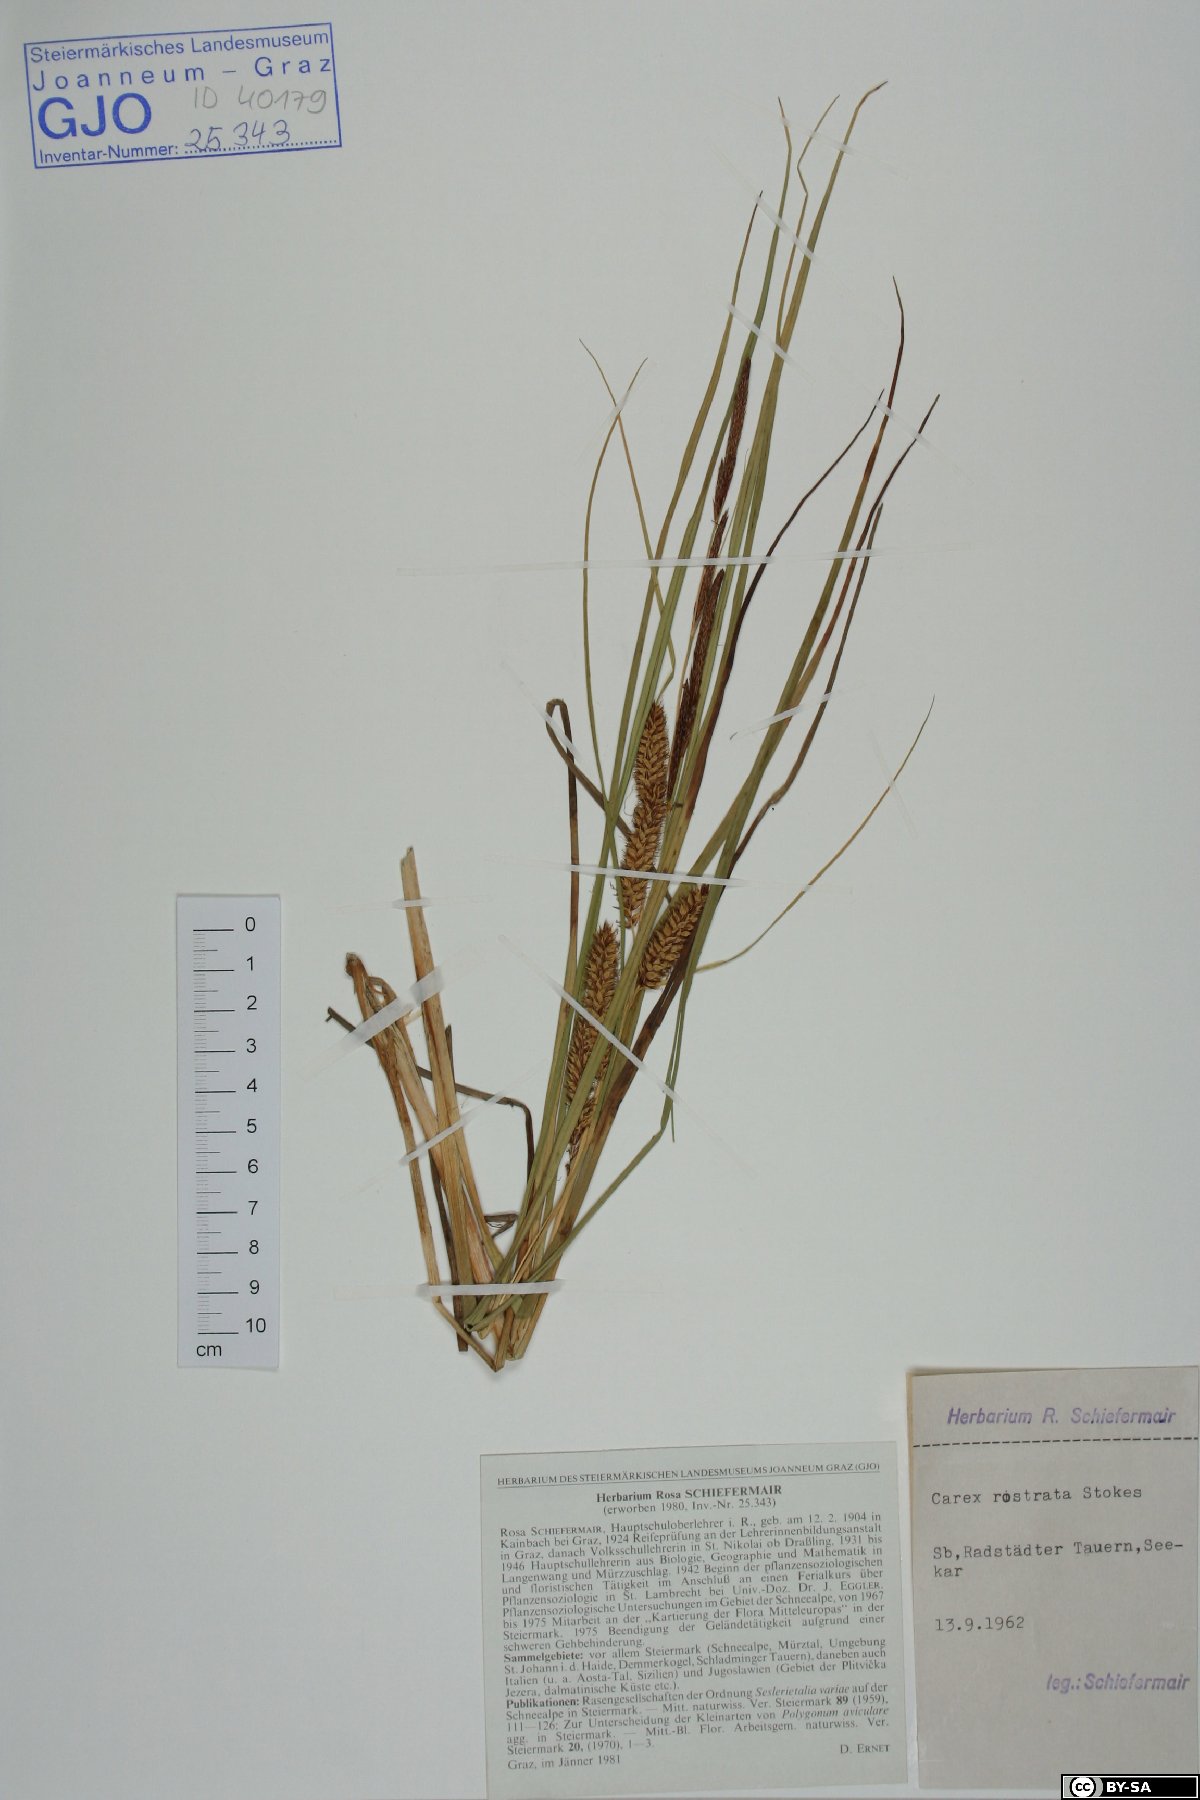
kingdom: Plantae
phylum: Tracheophyta
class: Liliopsida
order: Poales
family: Cyperaceae
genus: Carex
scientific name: Carex rostrata
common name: Bottle sedge
